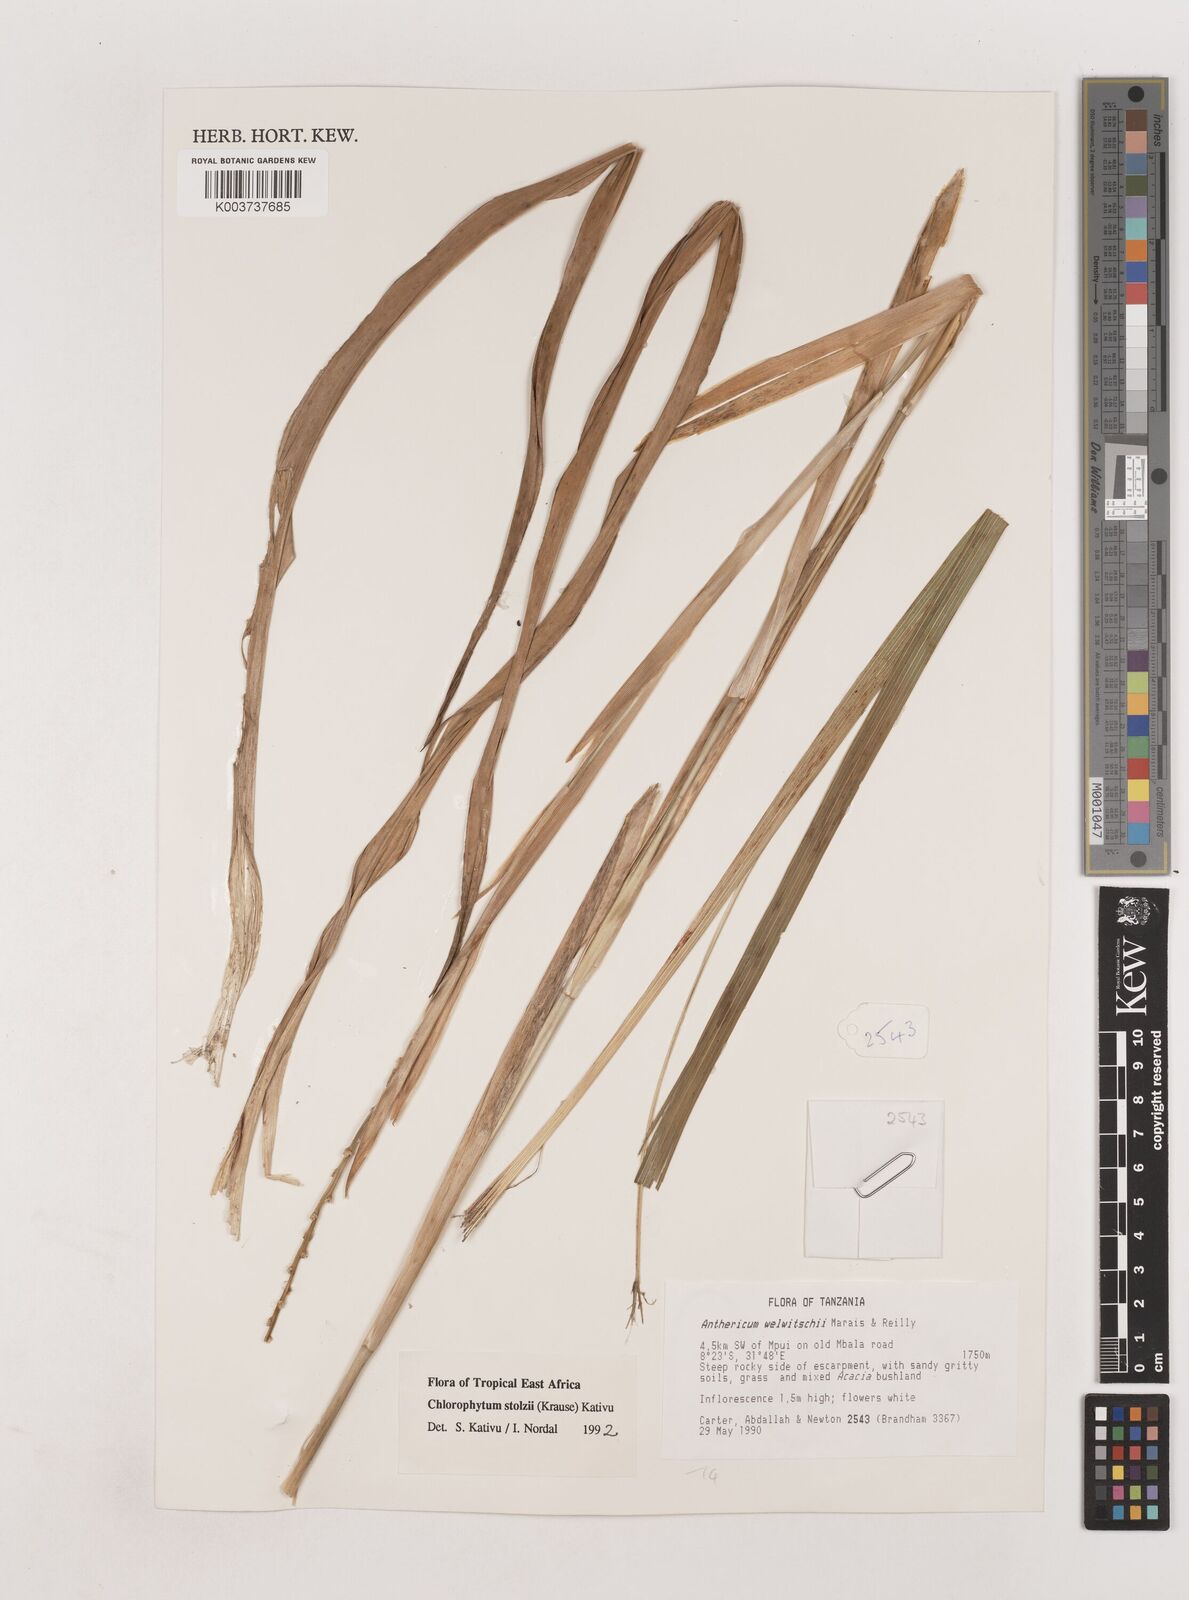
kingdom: Plantae
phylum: Tracheophyta
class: Liliopsida
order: Asparagales
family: Asparagaceae
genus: Chlorophytum
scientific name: Chlorophytum stolzii
